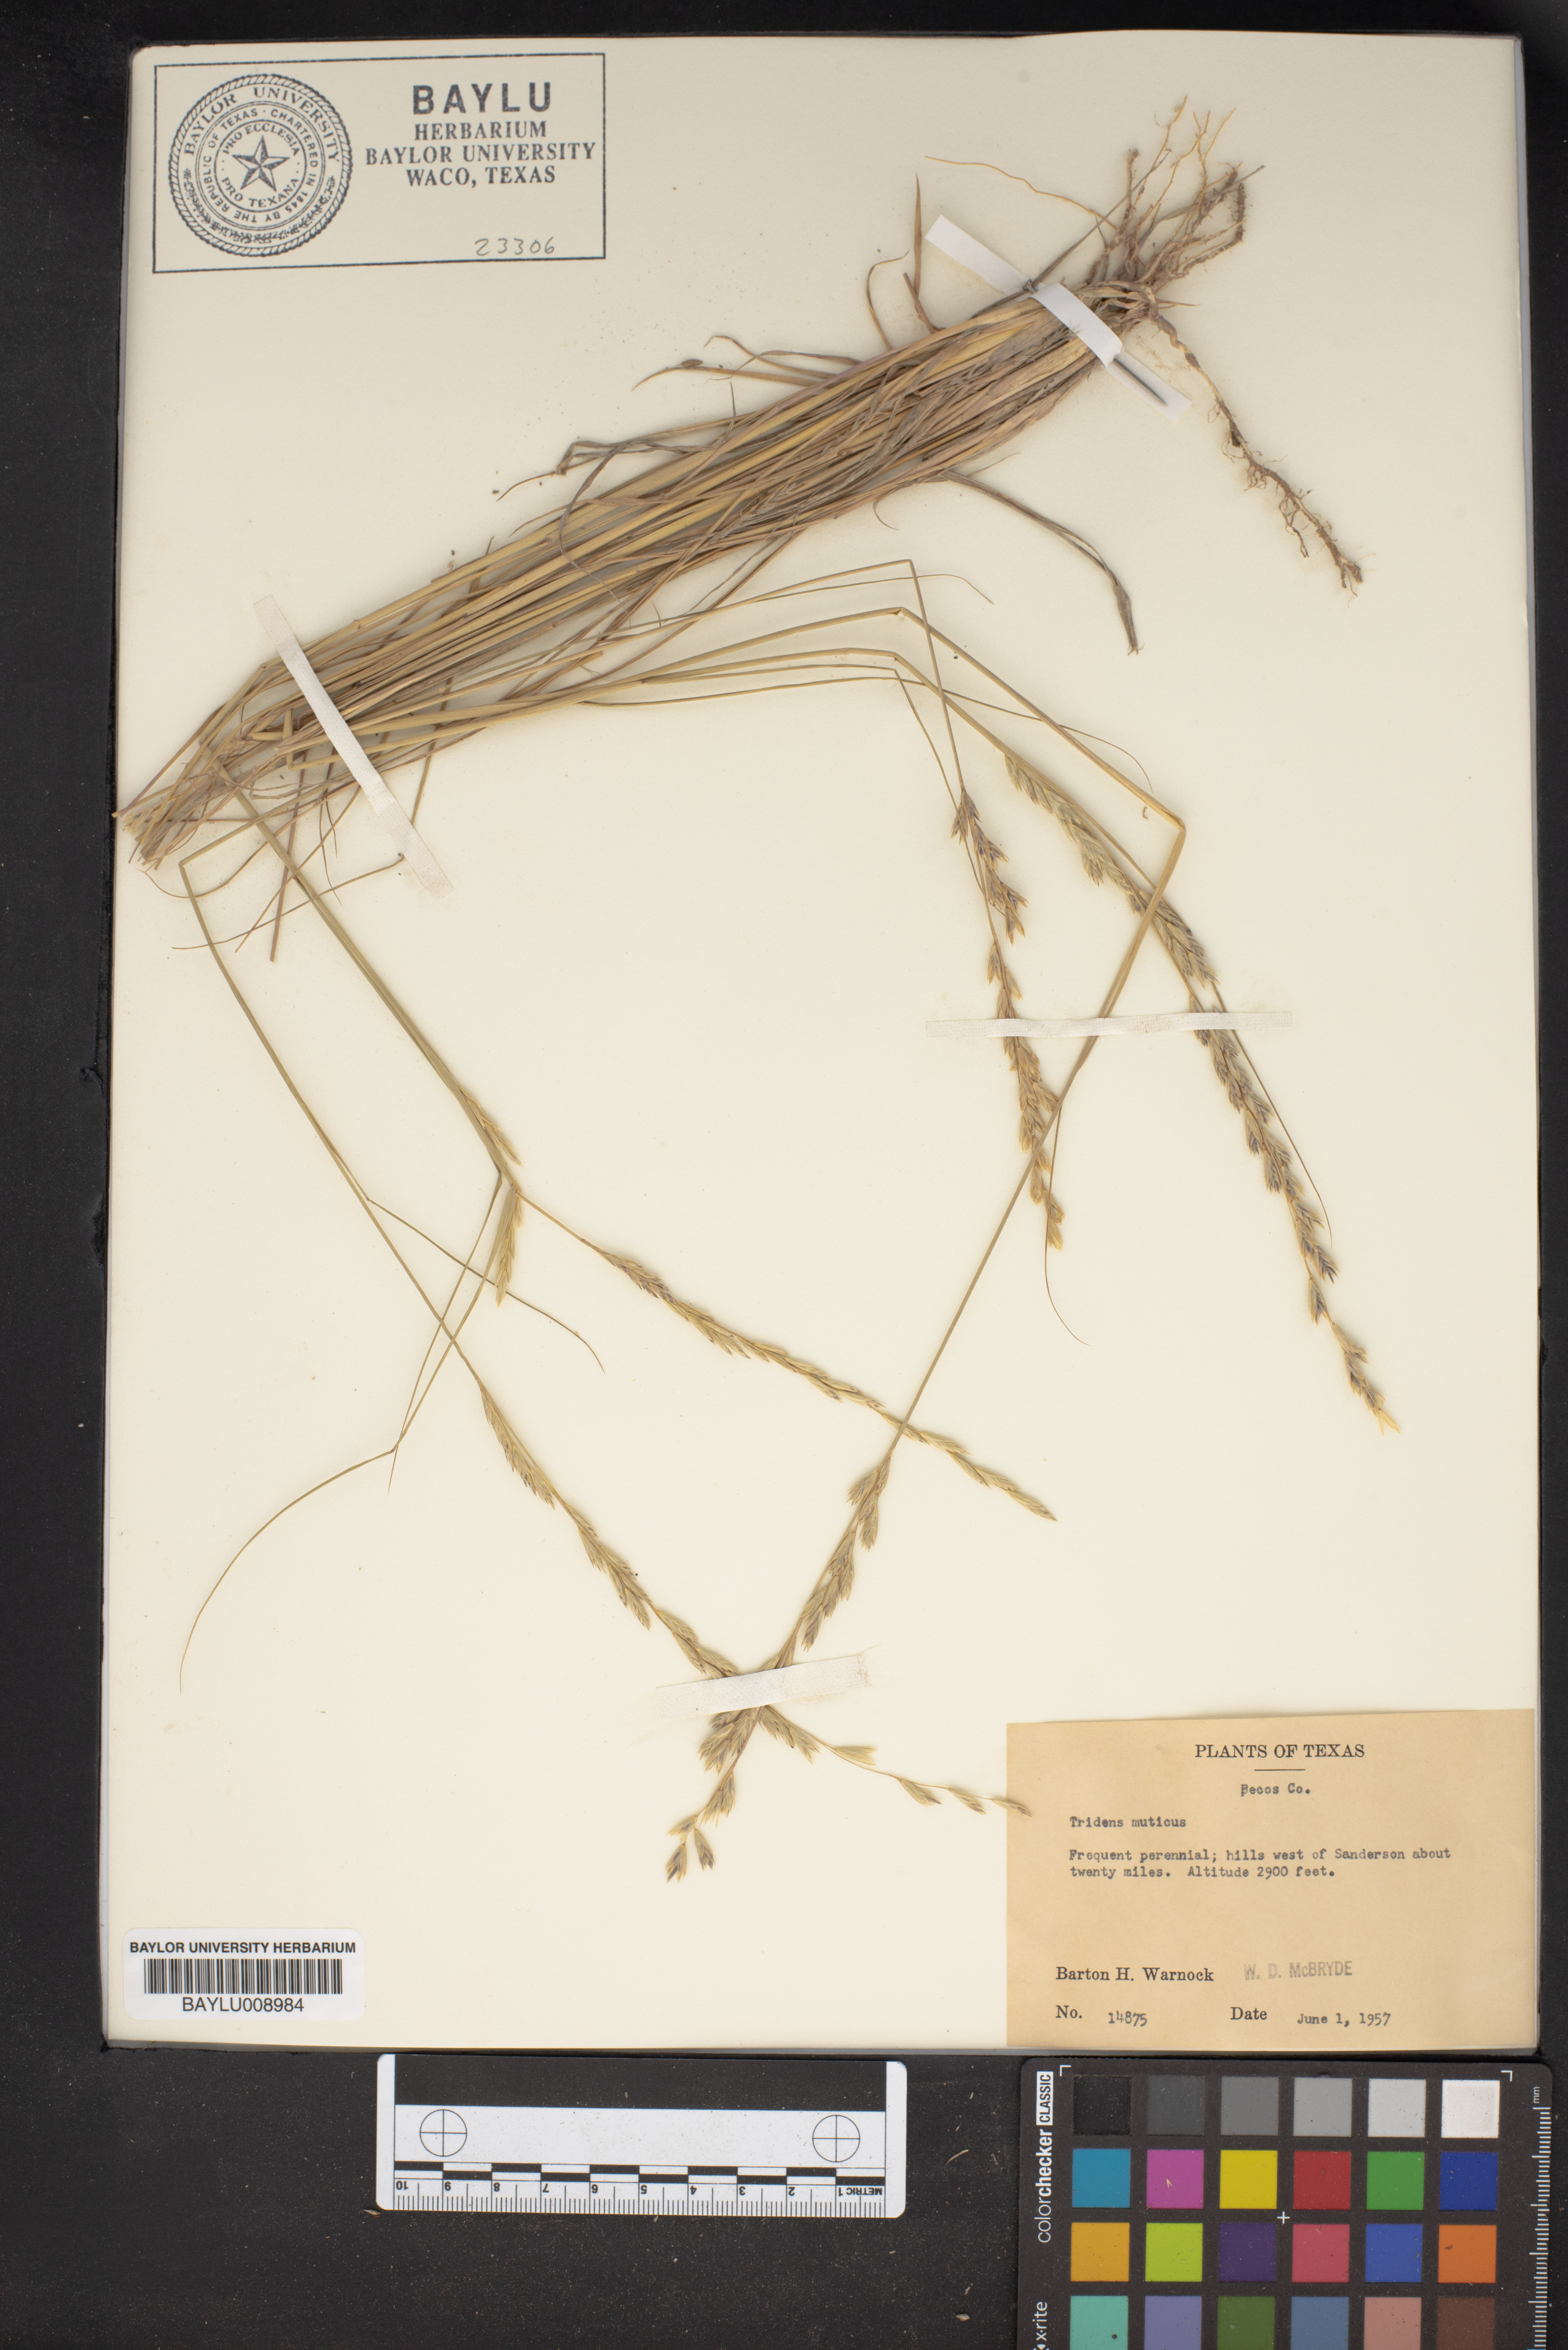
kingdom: Plantae
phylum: Tracheophyta
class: Liliopsida
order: Poales
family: Poaceae
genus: Tridentopsis
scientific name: Tridentopsis mutica
